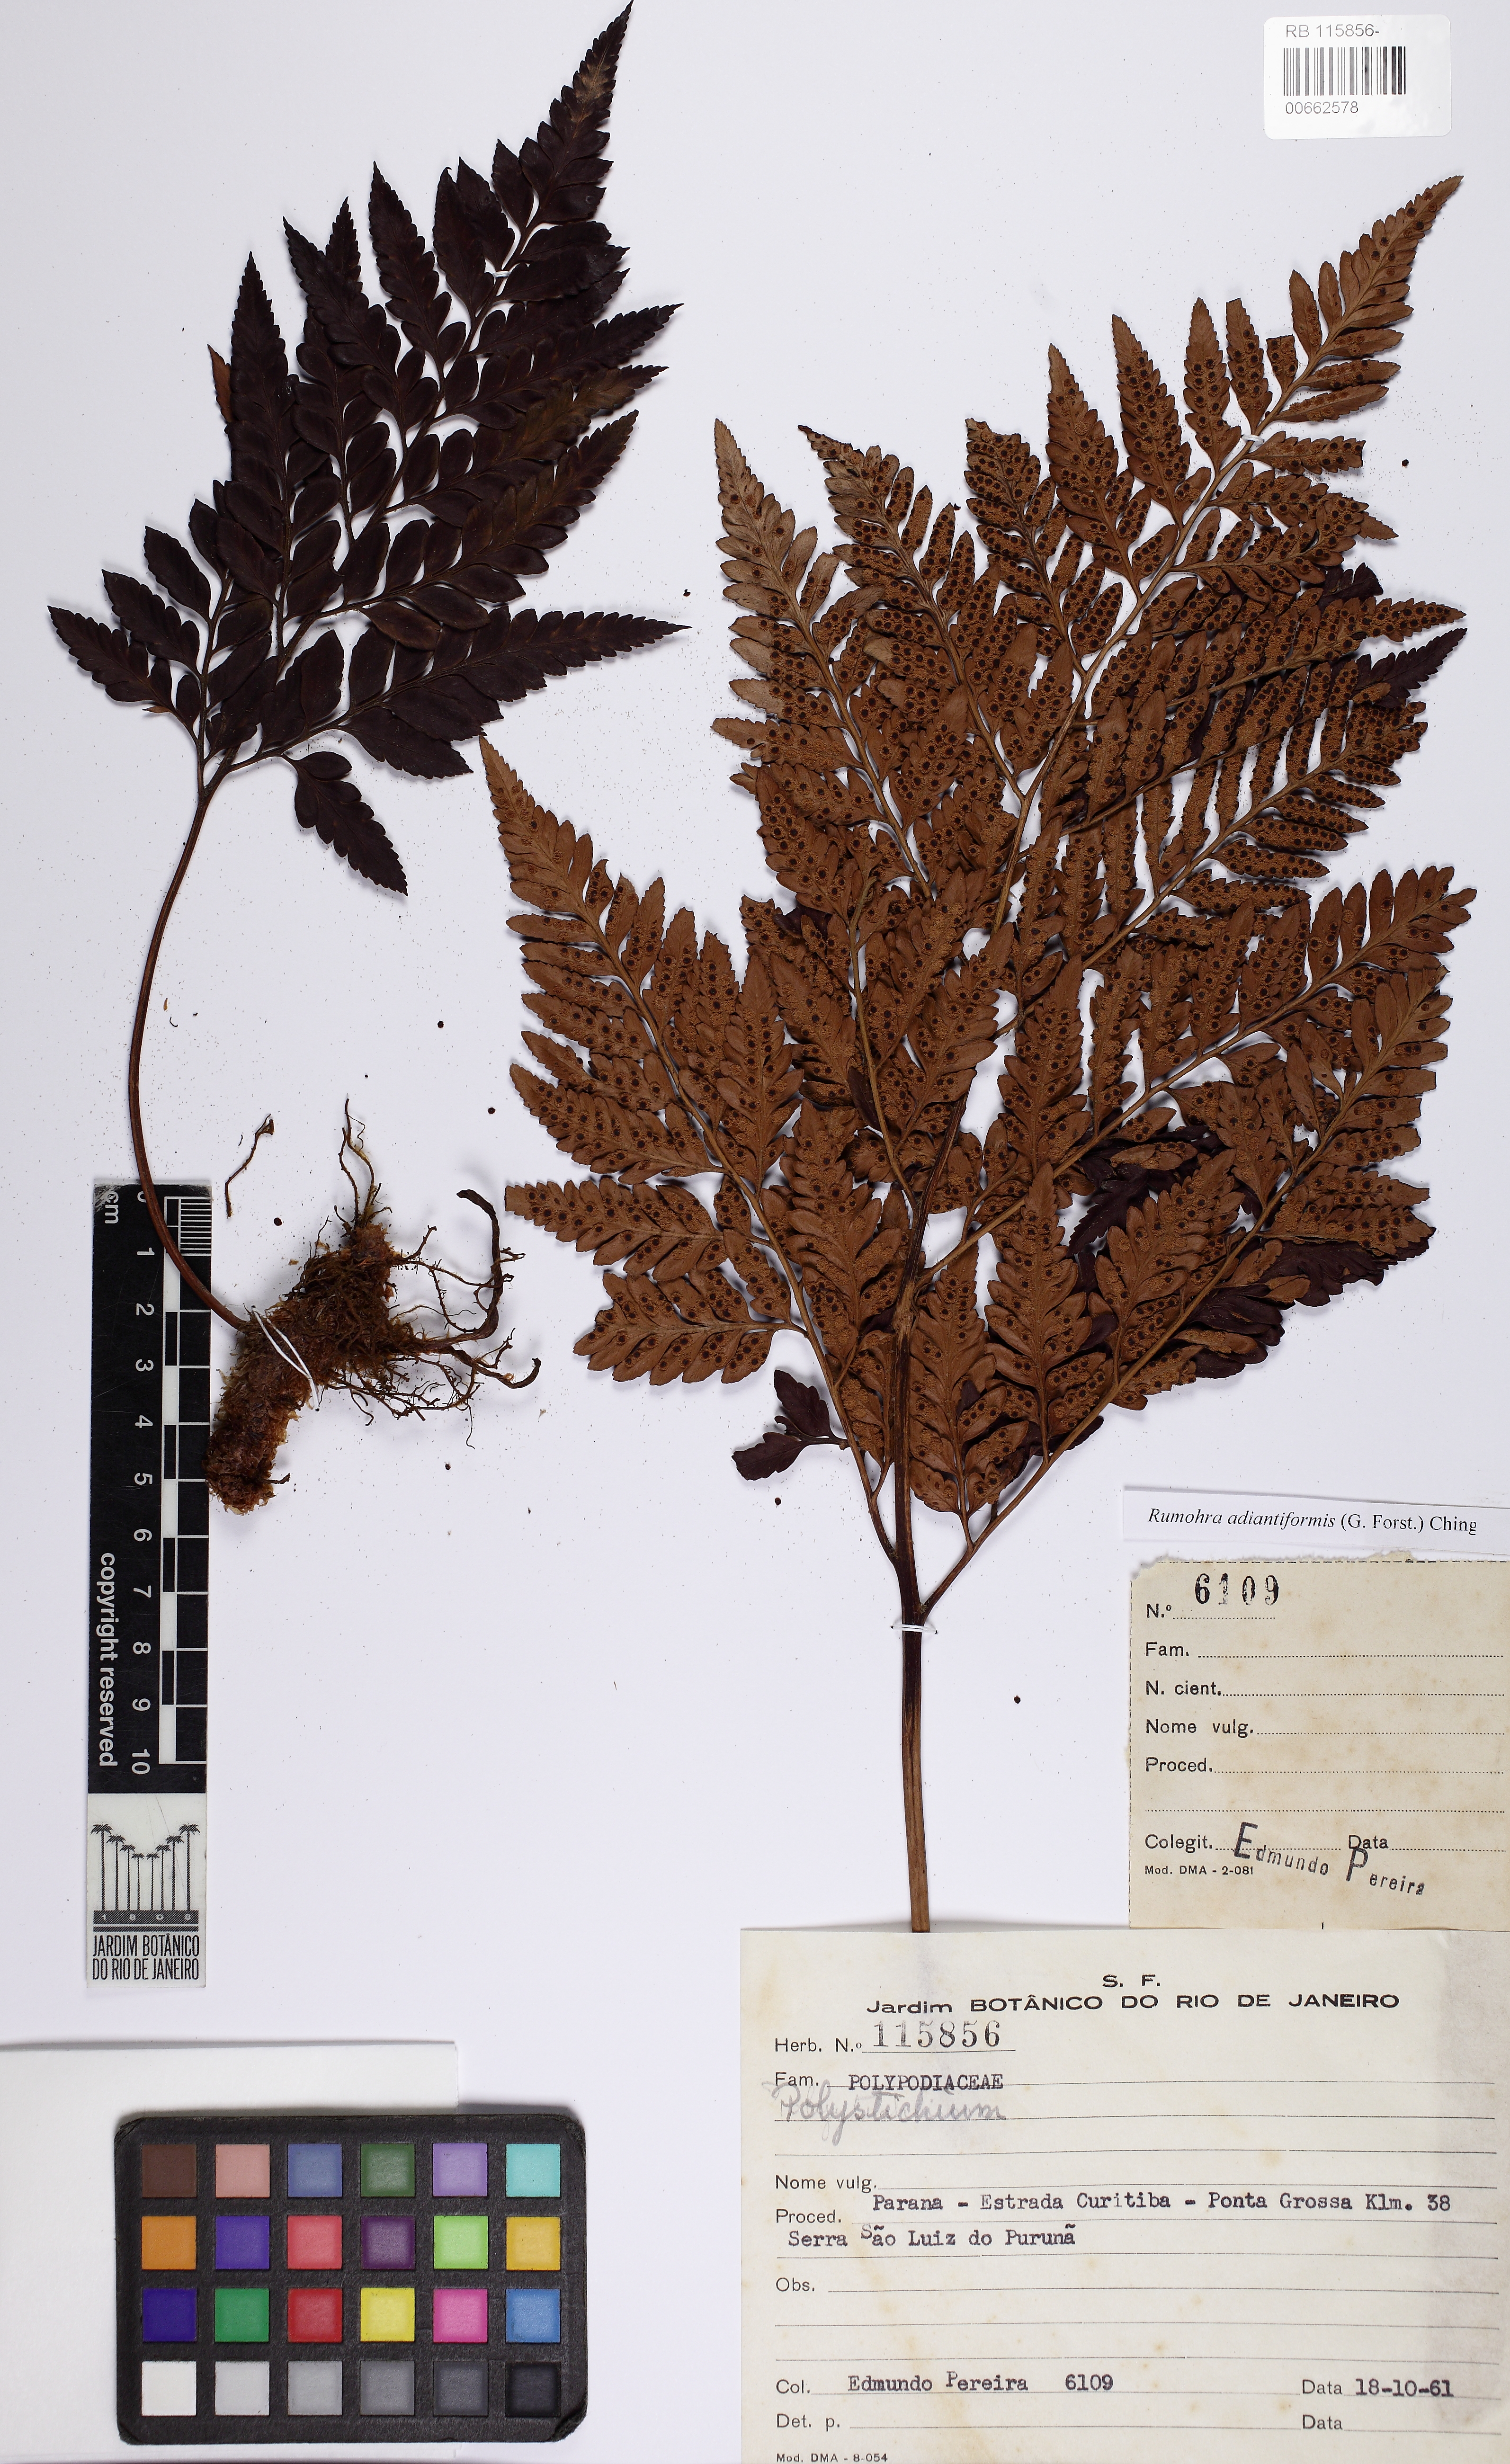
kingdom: Plantae
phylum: Tracheophyta
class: Polypodiopsida
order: Polypodiales
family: Dryopteridaceae
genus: Rumohra
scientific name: Rumohra adiantiformis
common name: Leather fern
